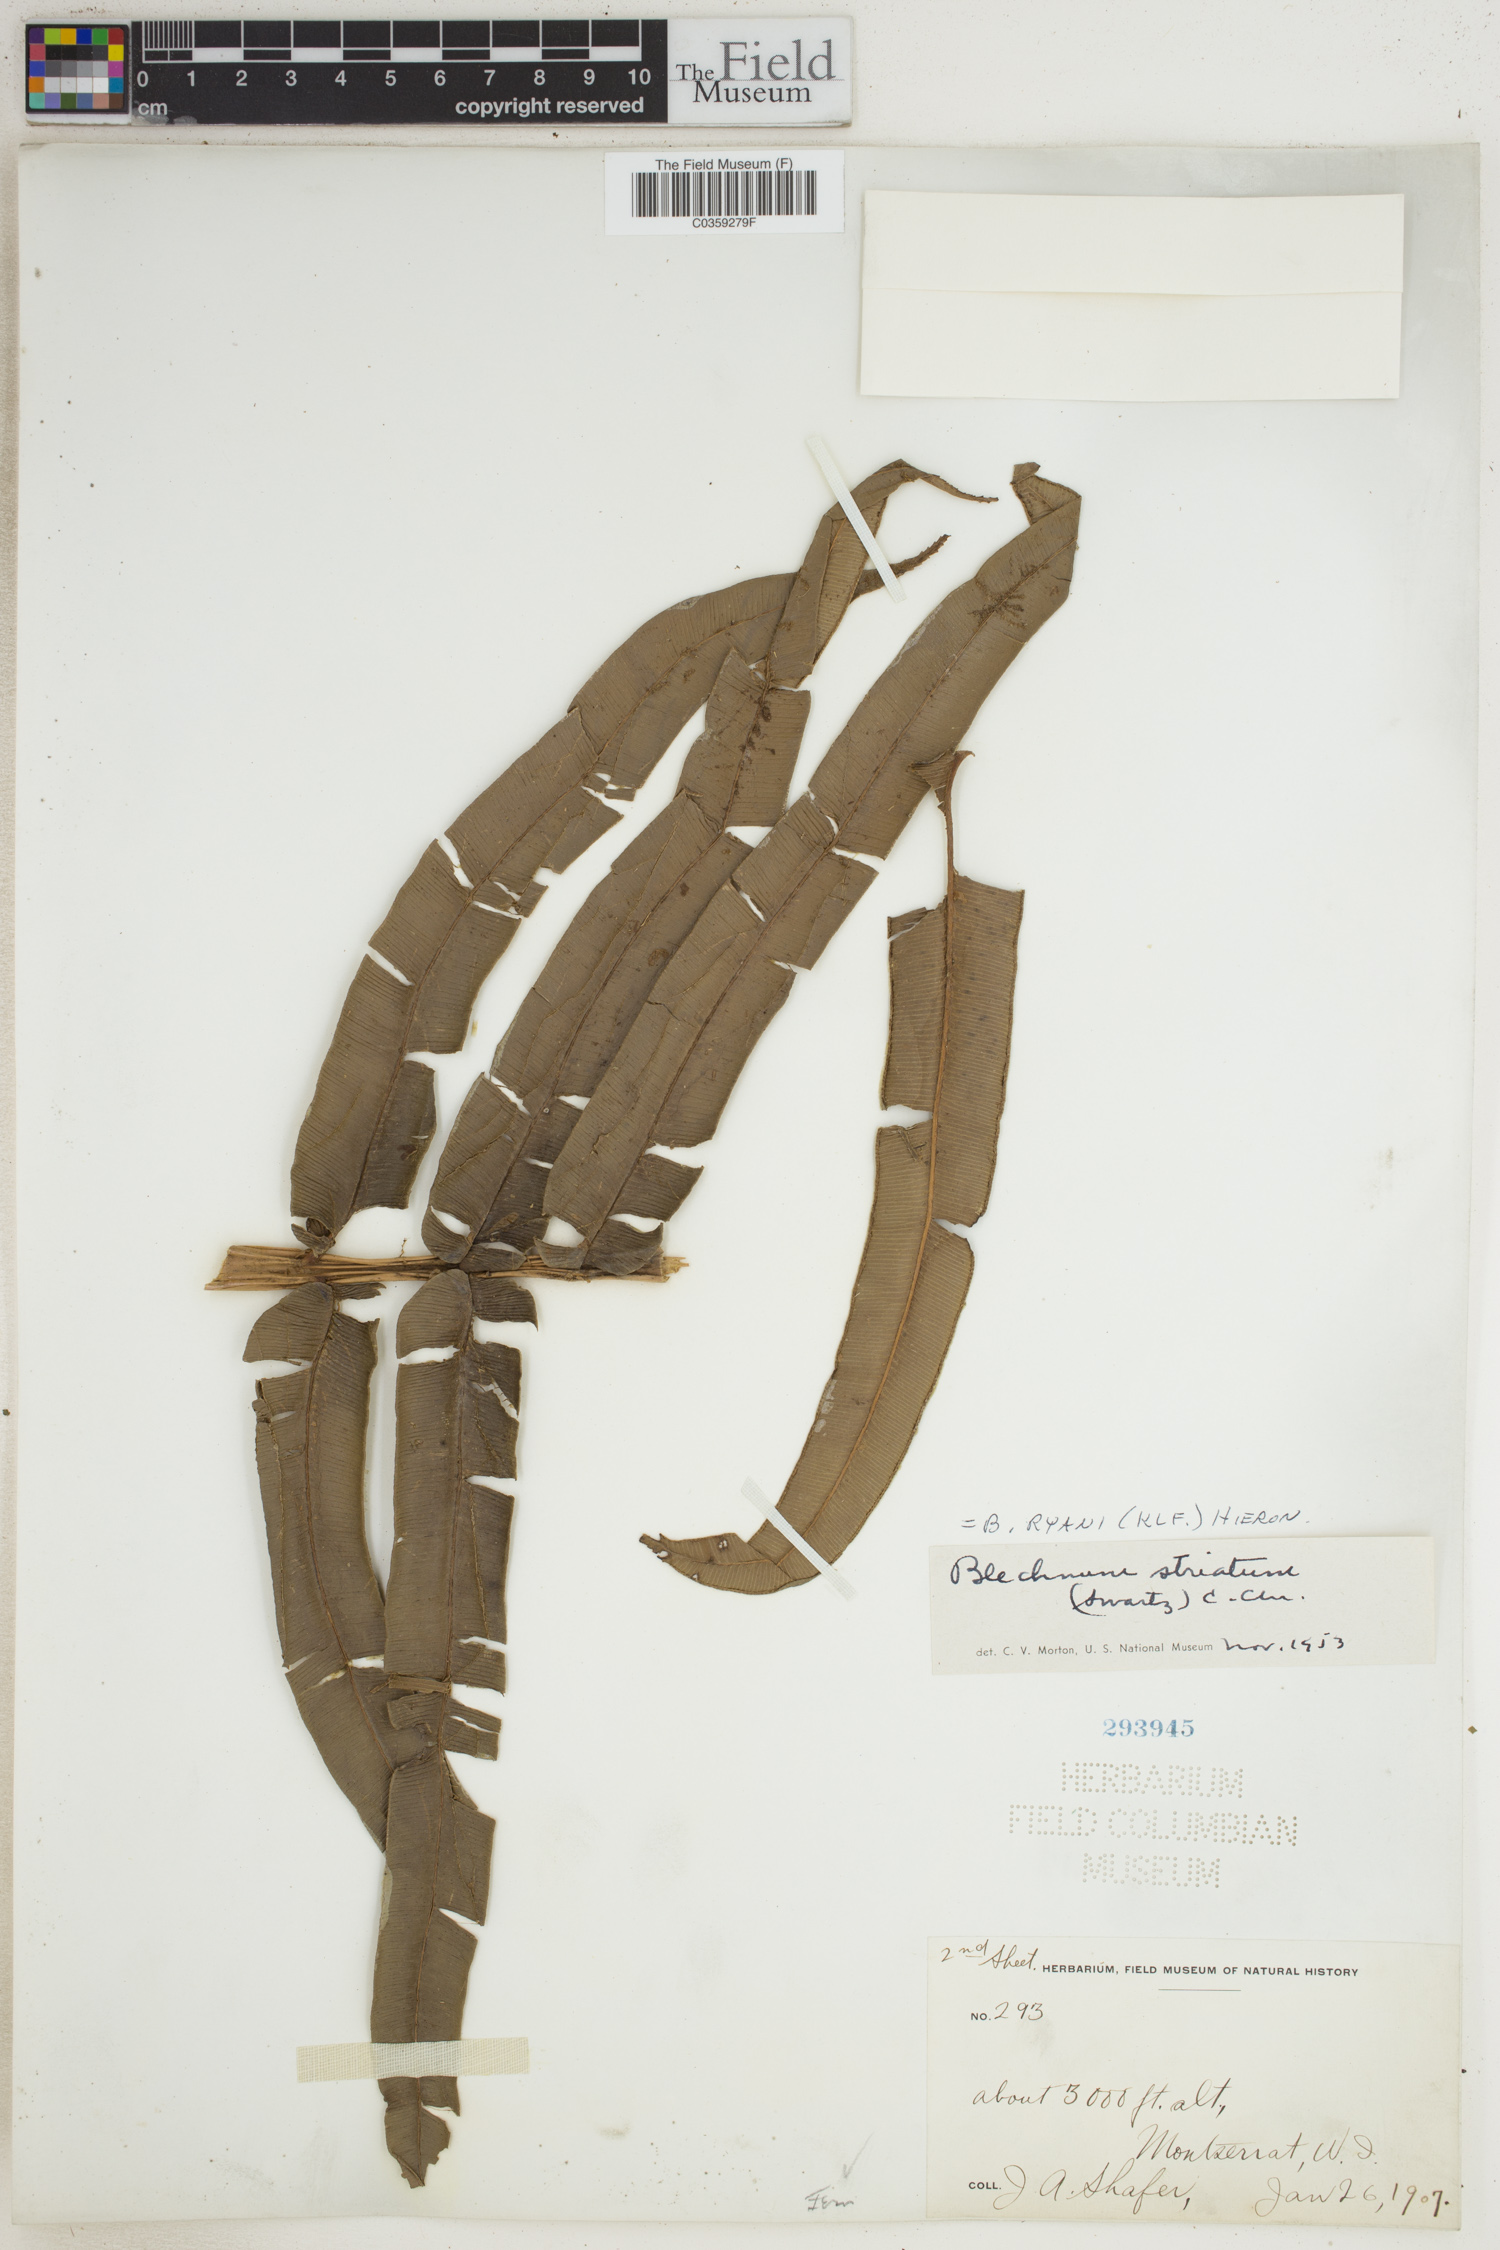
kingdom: Plantae
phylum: Tracheophyta
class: Polypodiopsida
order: Polypodiales
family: Blechnaceae
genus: Parablechnum
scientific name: Parablechnum ryanii
